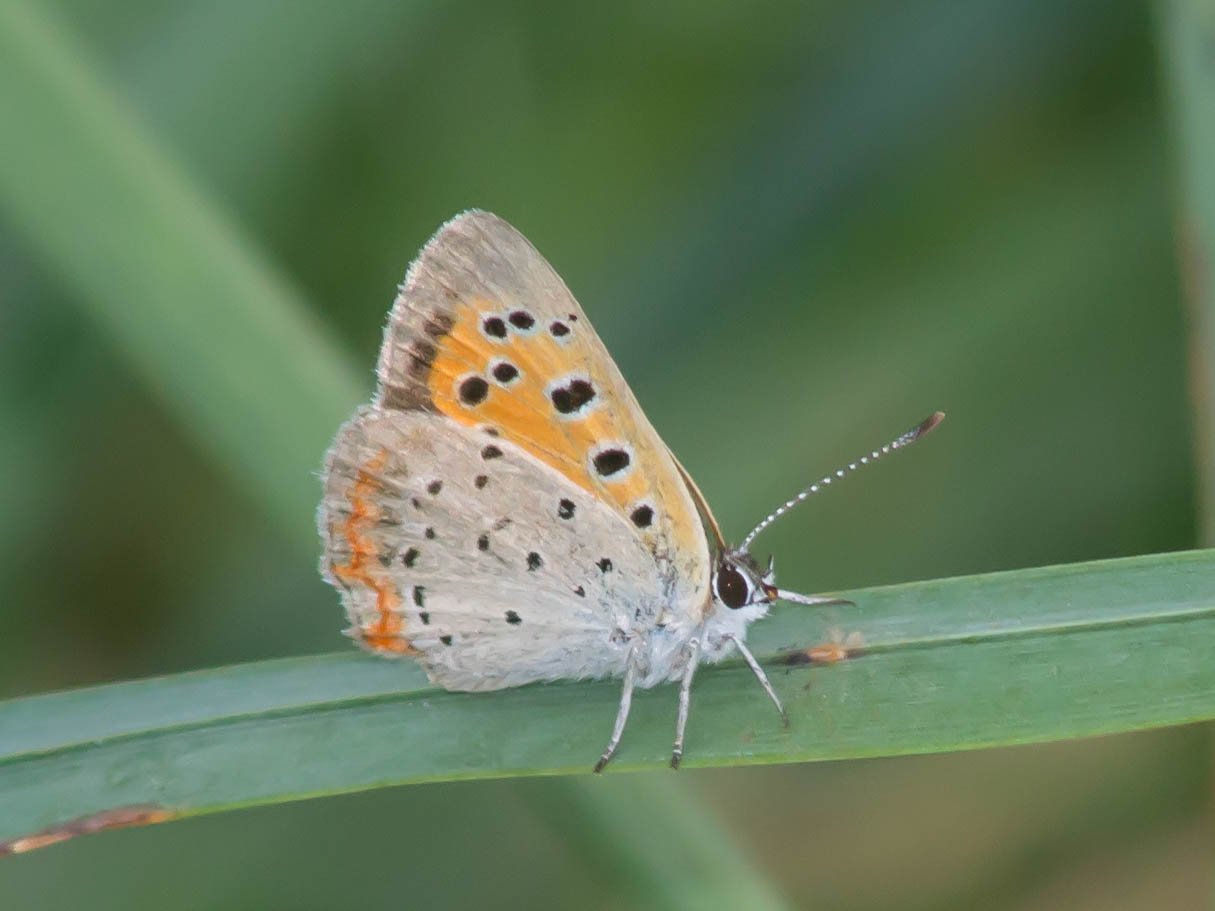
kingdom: Animalia
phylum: Arthropoda
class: Insecta
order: Lepidoptera
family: Lycaenidae
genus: Lycaena
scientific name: Lycaena phlaeas
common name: American Copper
